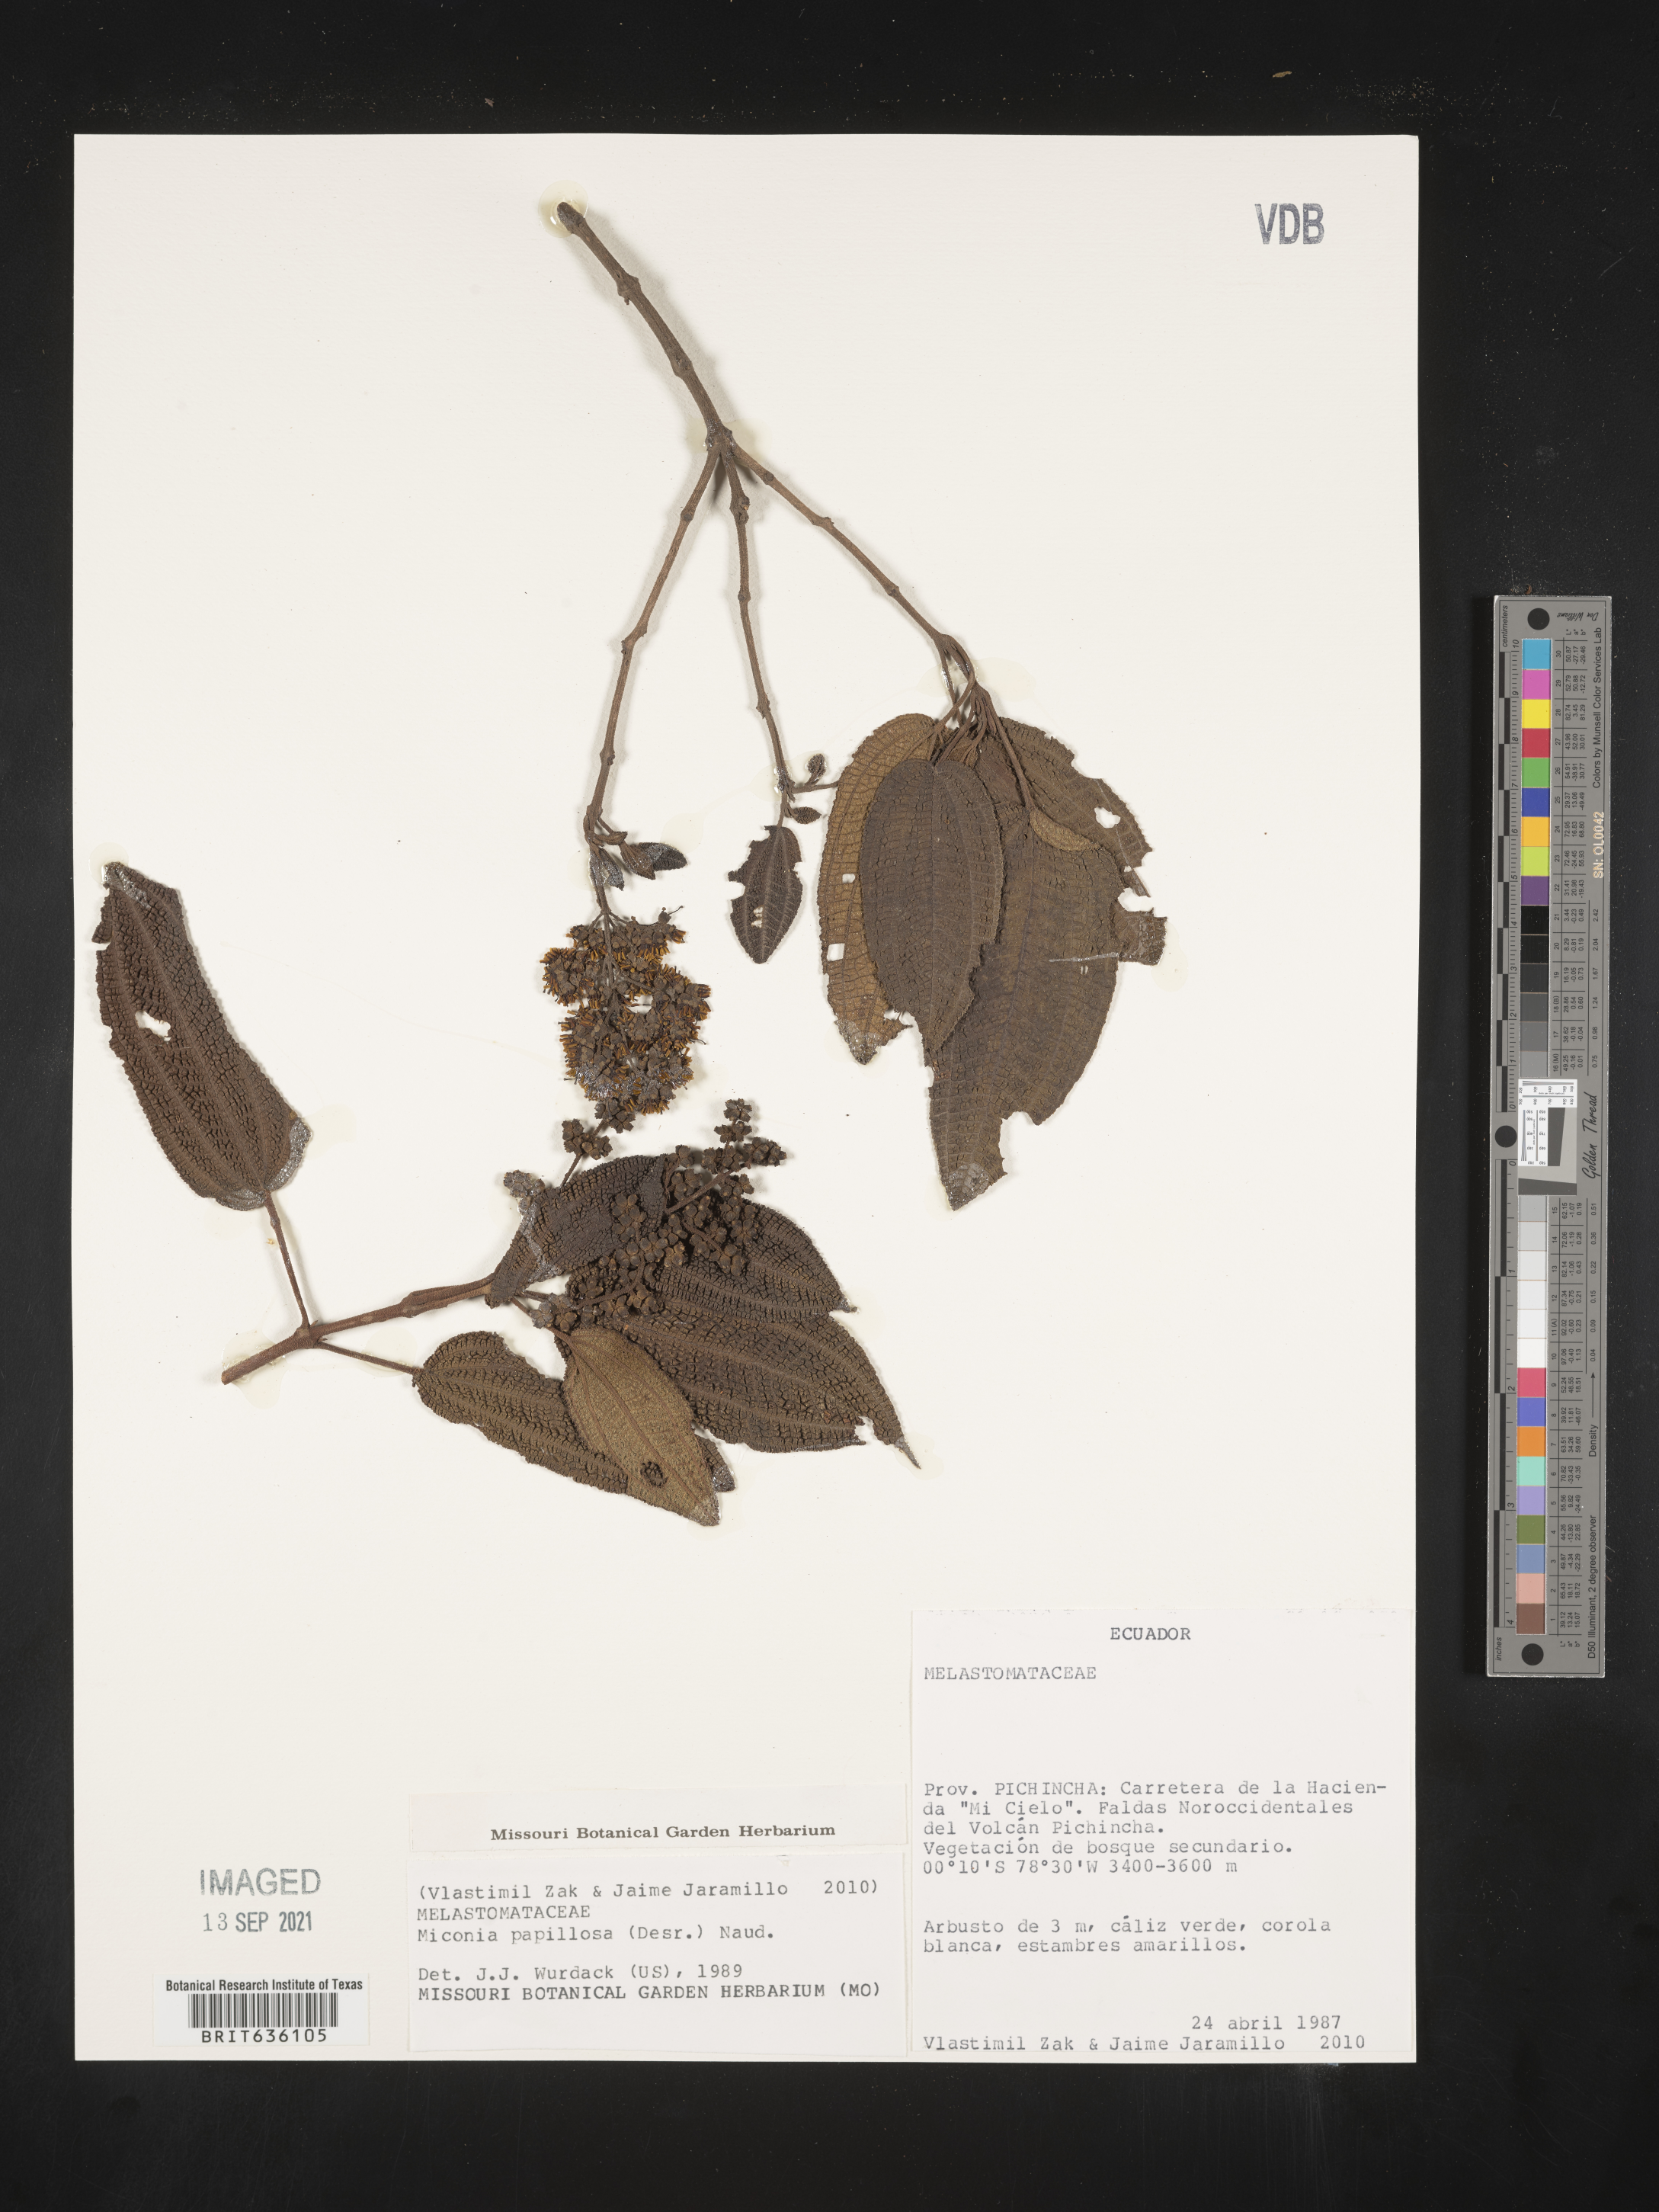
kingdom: Plantae
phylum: Tracheophyta
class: Magnoliopsida
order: Myrtales
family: Melastomataceae
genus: Miconia
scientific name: Miconia
